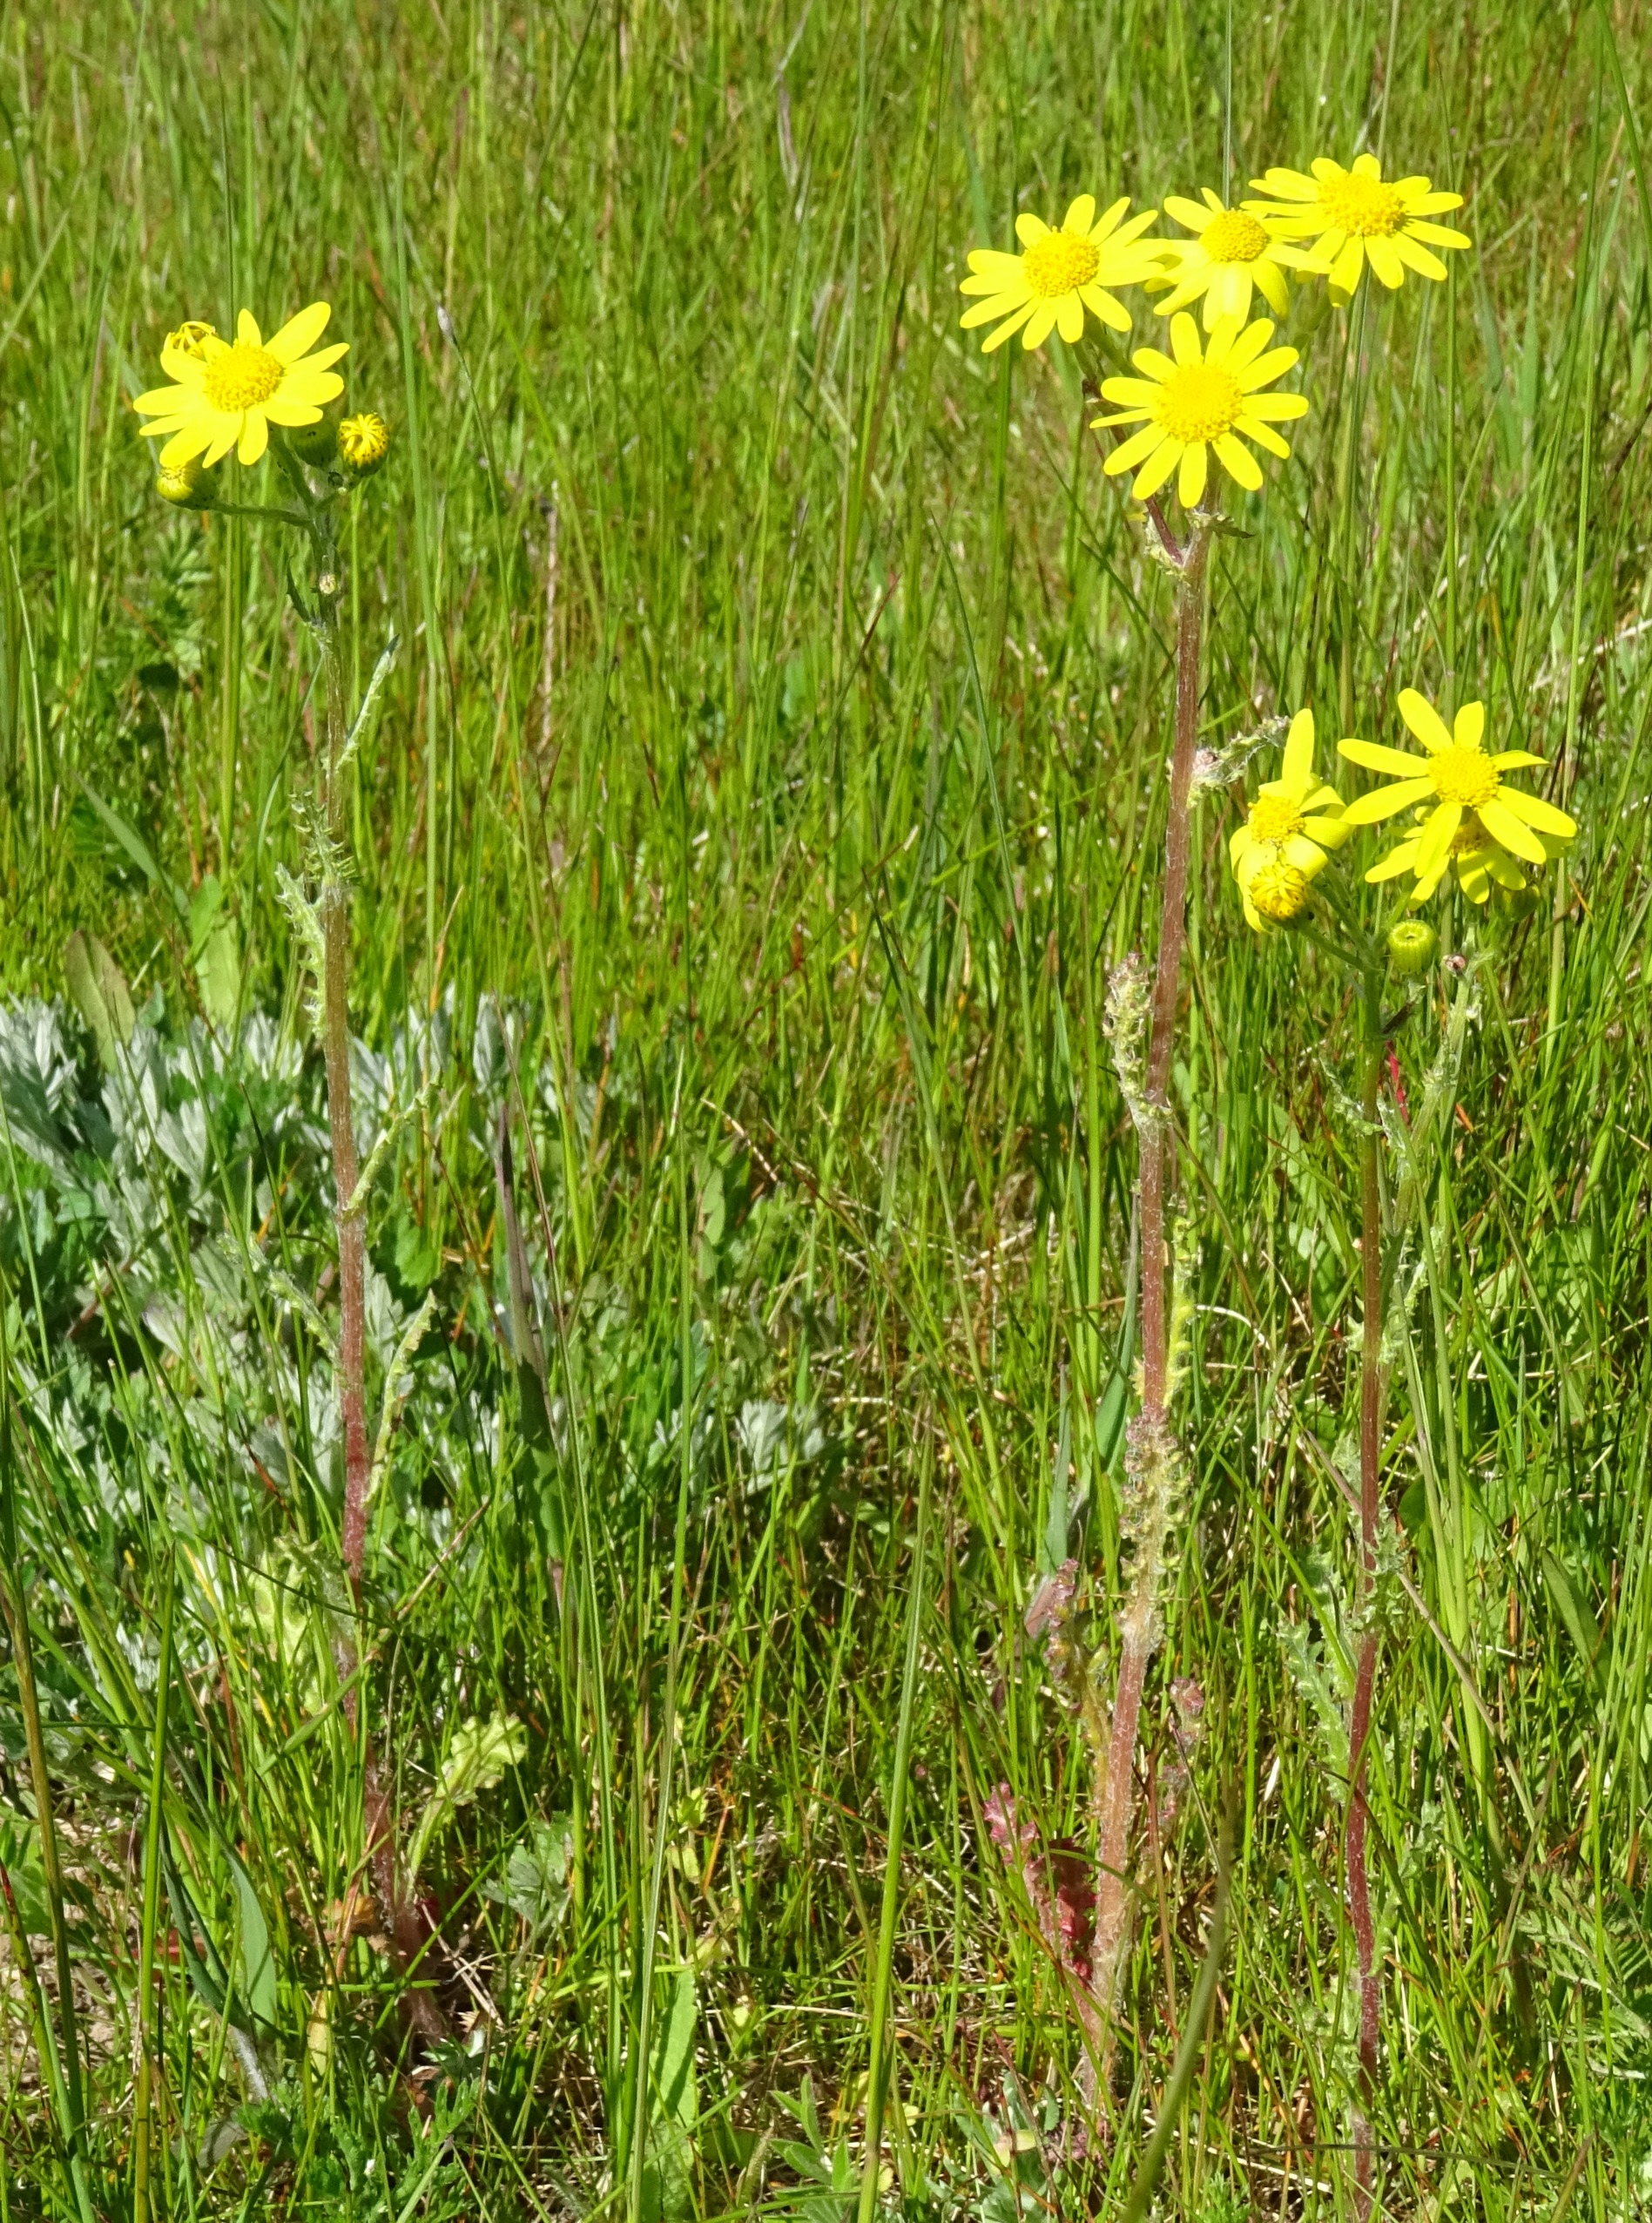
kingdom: Plantae
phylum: Tracheophyta
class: Magnoliopsida
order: Asterales
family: Asteraceae
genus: Senecio
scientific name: Senecio leucanthemifolius
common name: Vår-brandbæger
